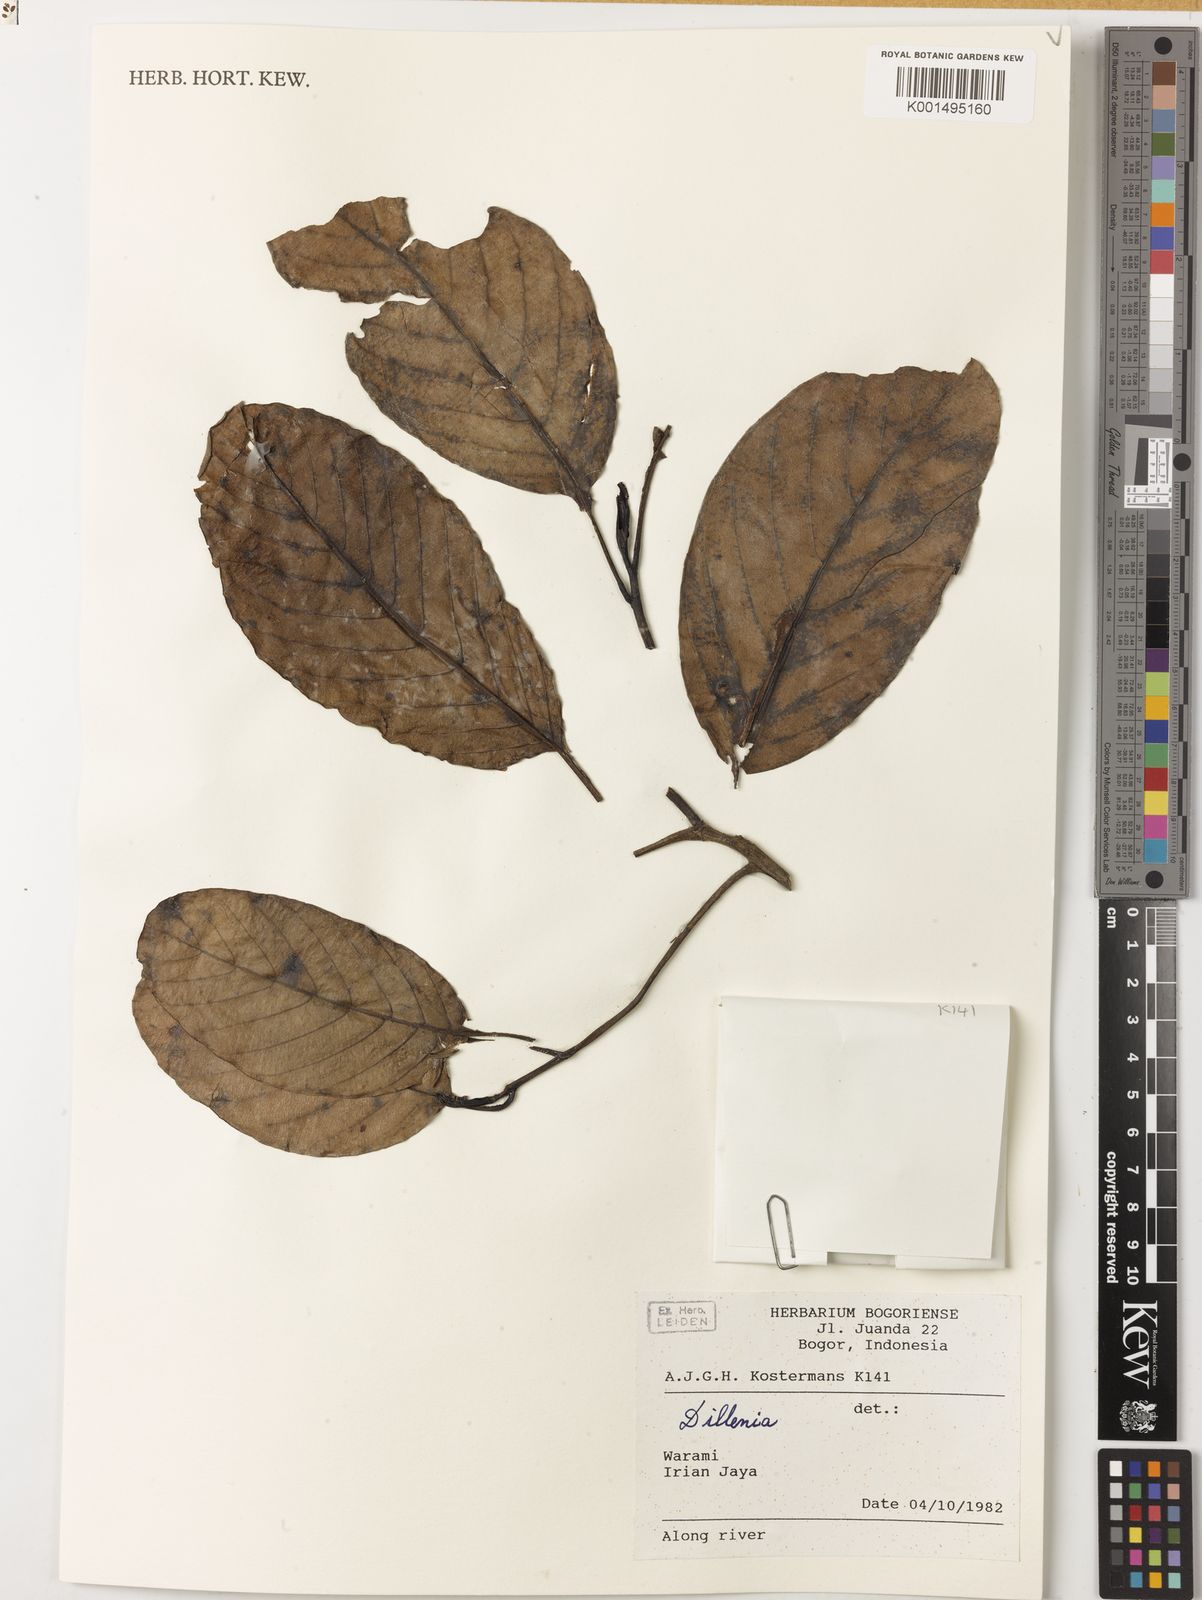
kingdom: Plantae
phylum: Tracheophyta
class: Magnoliopsida
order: Dilleniales
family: Dilleniaceae
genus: Dillenia
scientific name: Dillenia
